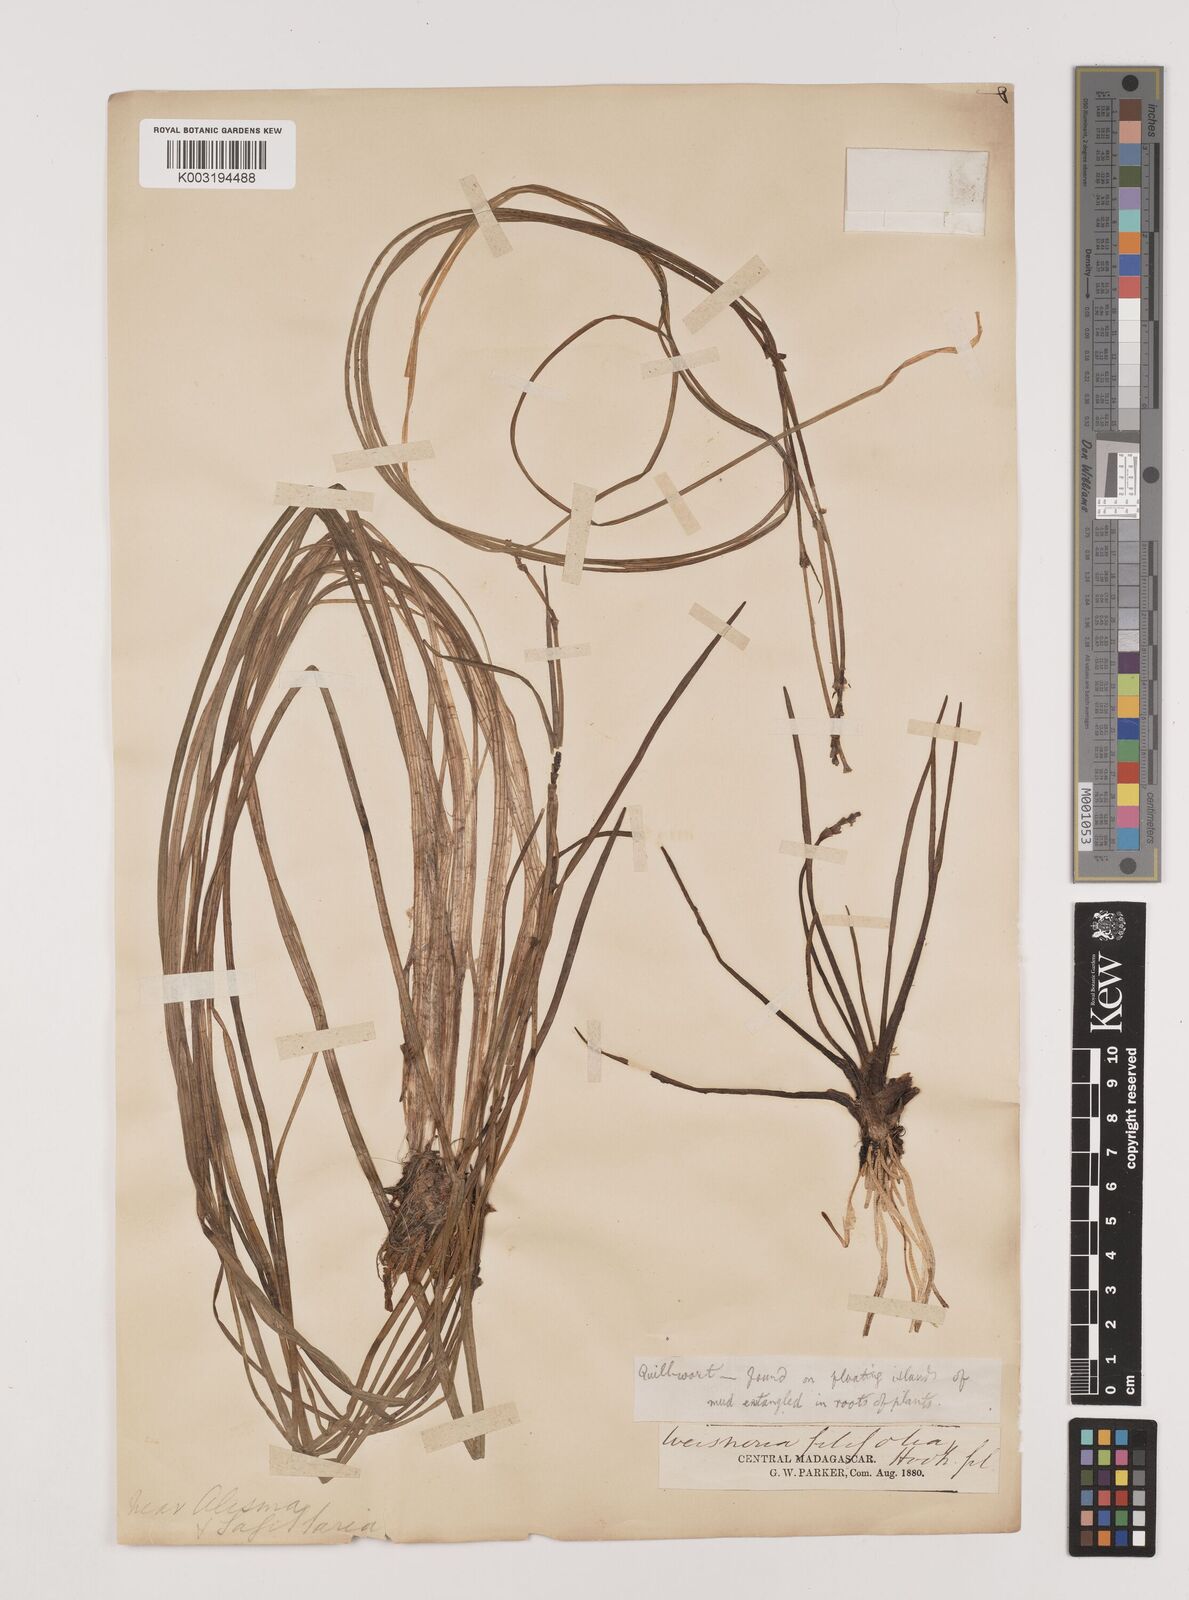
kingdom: Plantae
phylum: Tracheophyta
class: Liliopsida
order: Alismatales
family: Alismataceae
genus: Wiesneria
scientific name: Wiesneria filifolia
